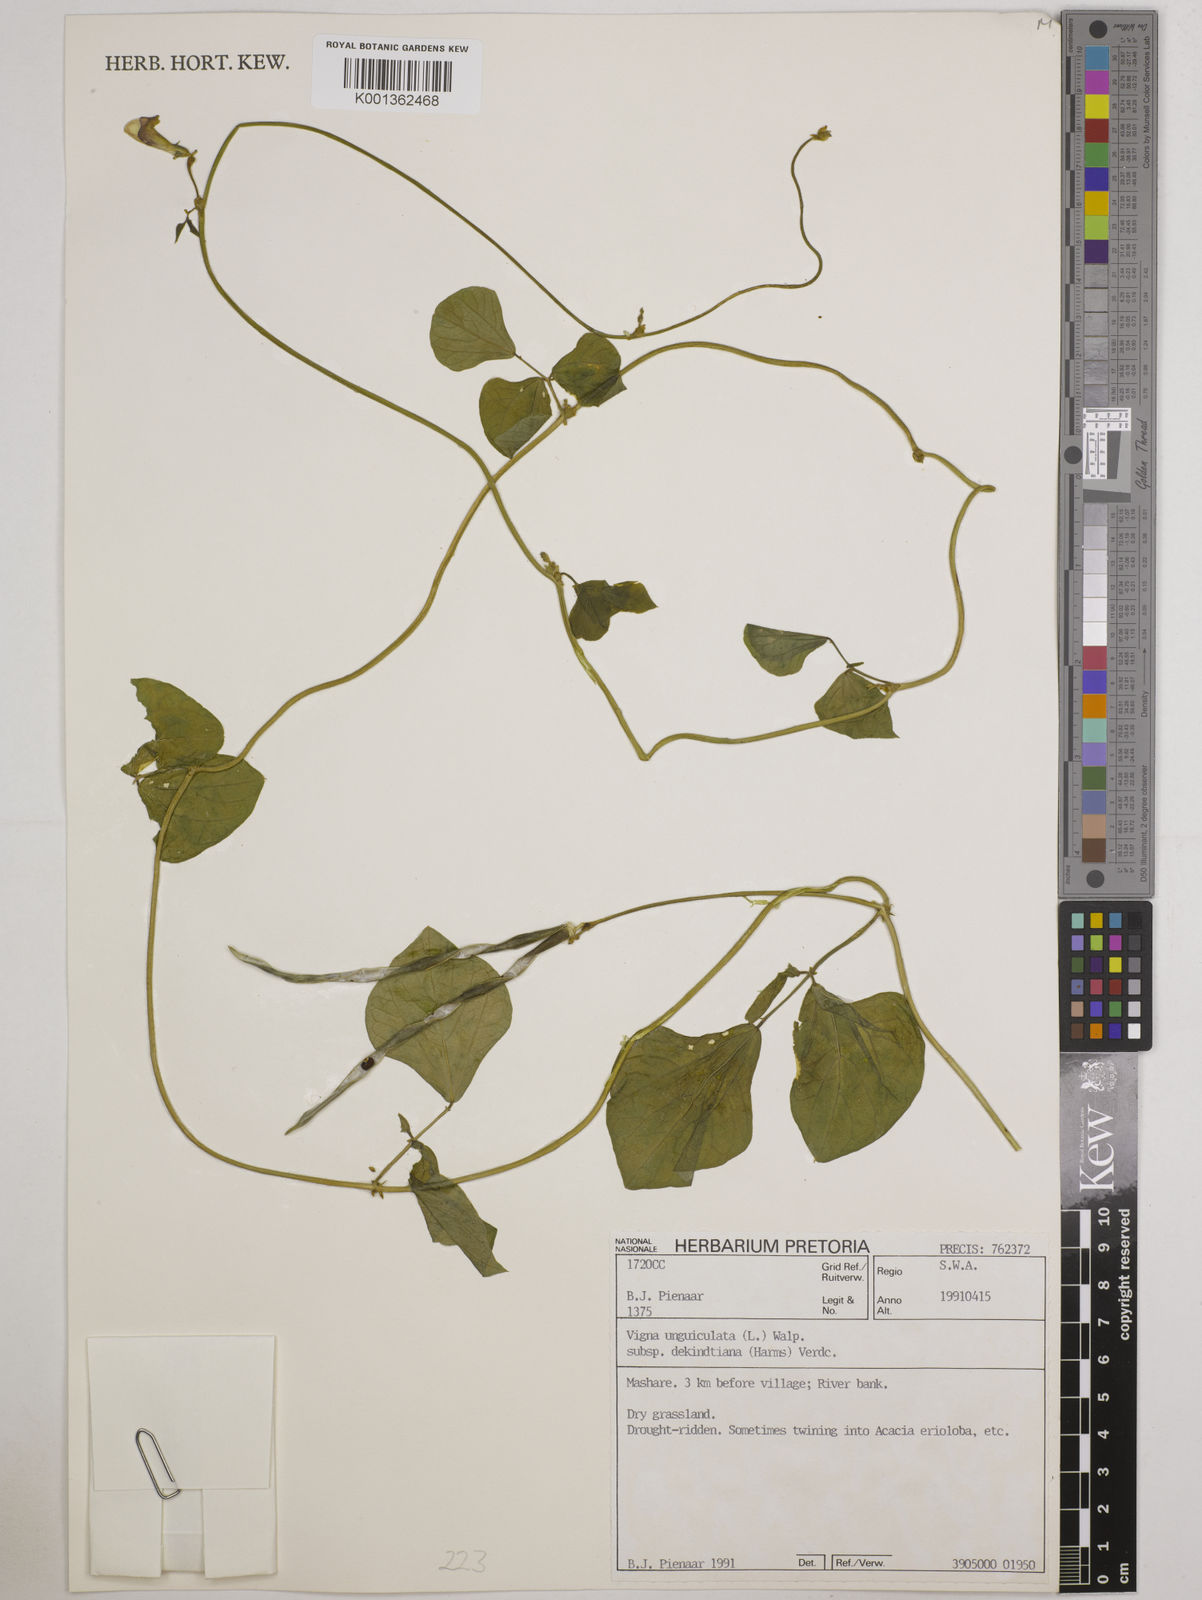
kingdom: Plantae
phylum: Tracheophyta
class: Magnoliopsida
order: Fabales
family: Fabaceae
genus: Vigna
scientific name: Vigna
